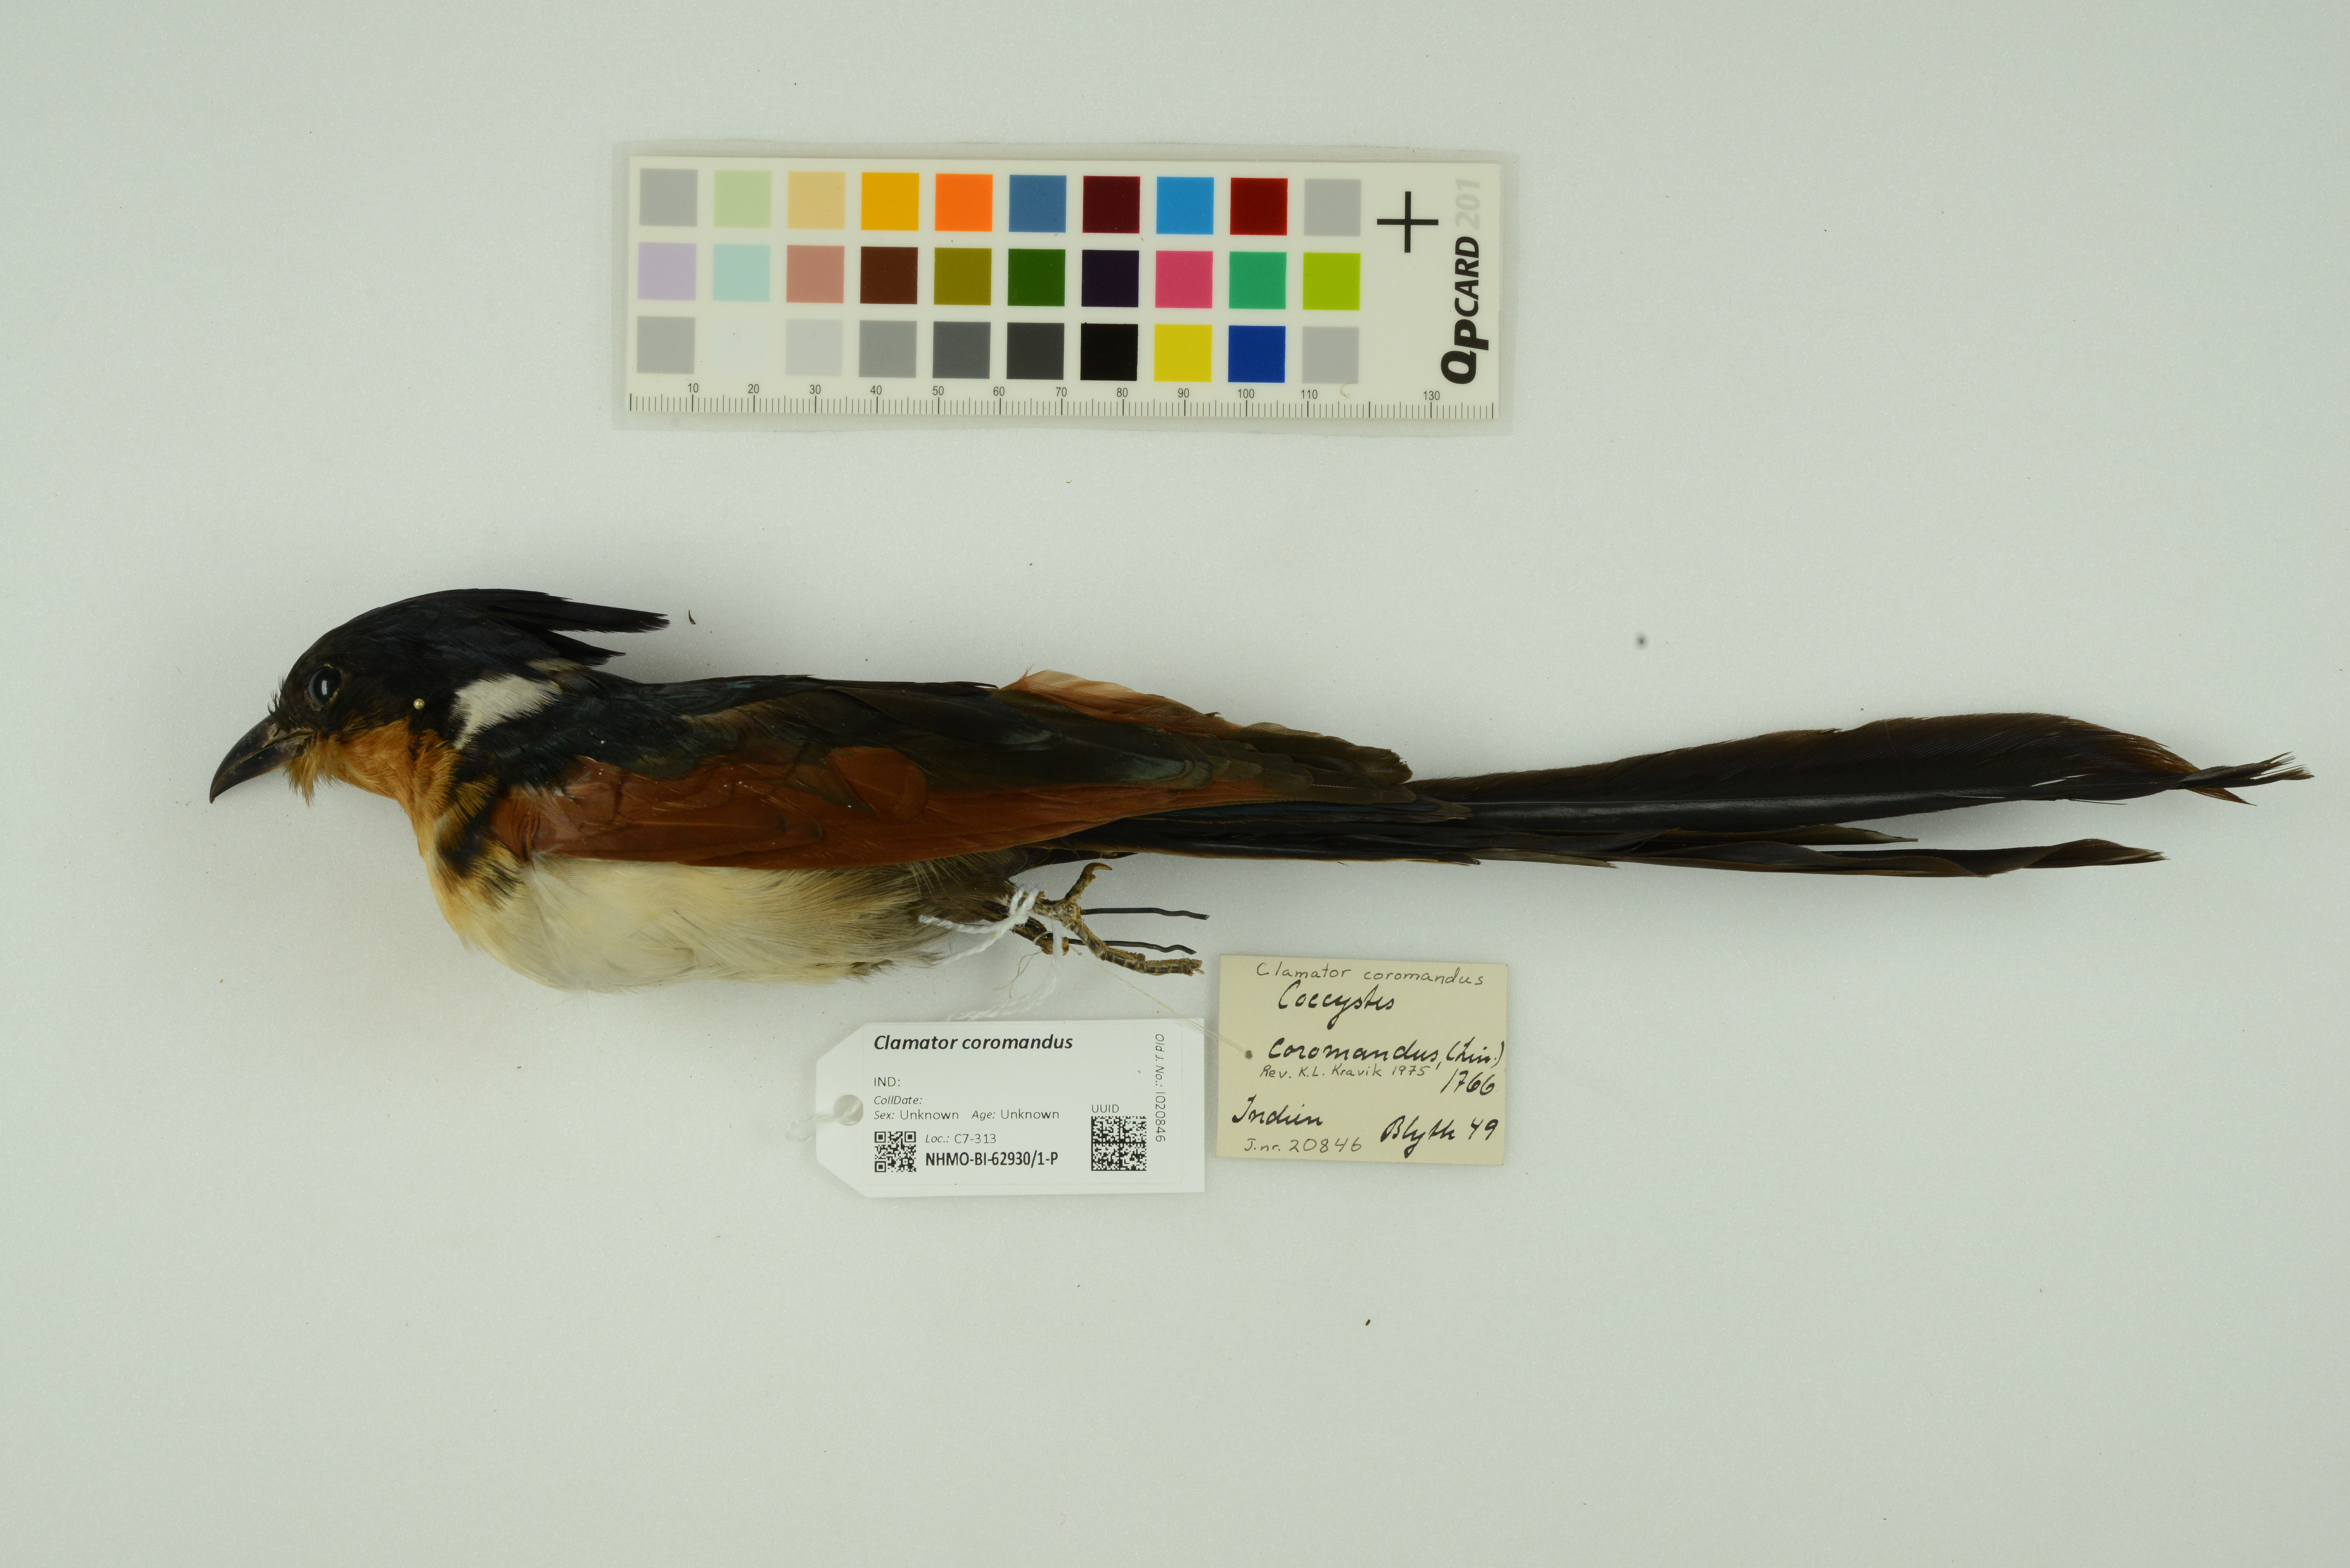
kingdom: Animalia
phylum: Chordata
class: Aves
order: Cuculiformes
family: Cuculidae
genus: Clamator
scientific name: Clamator coromandus
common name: Chestnut-winged cuckoo
